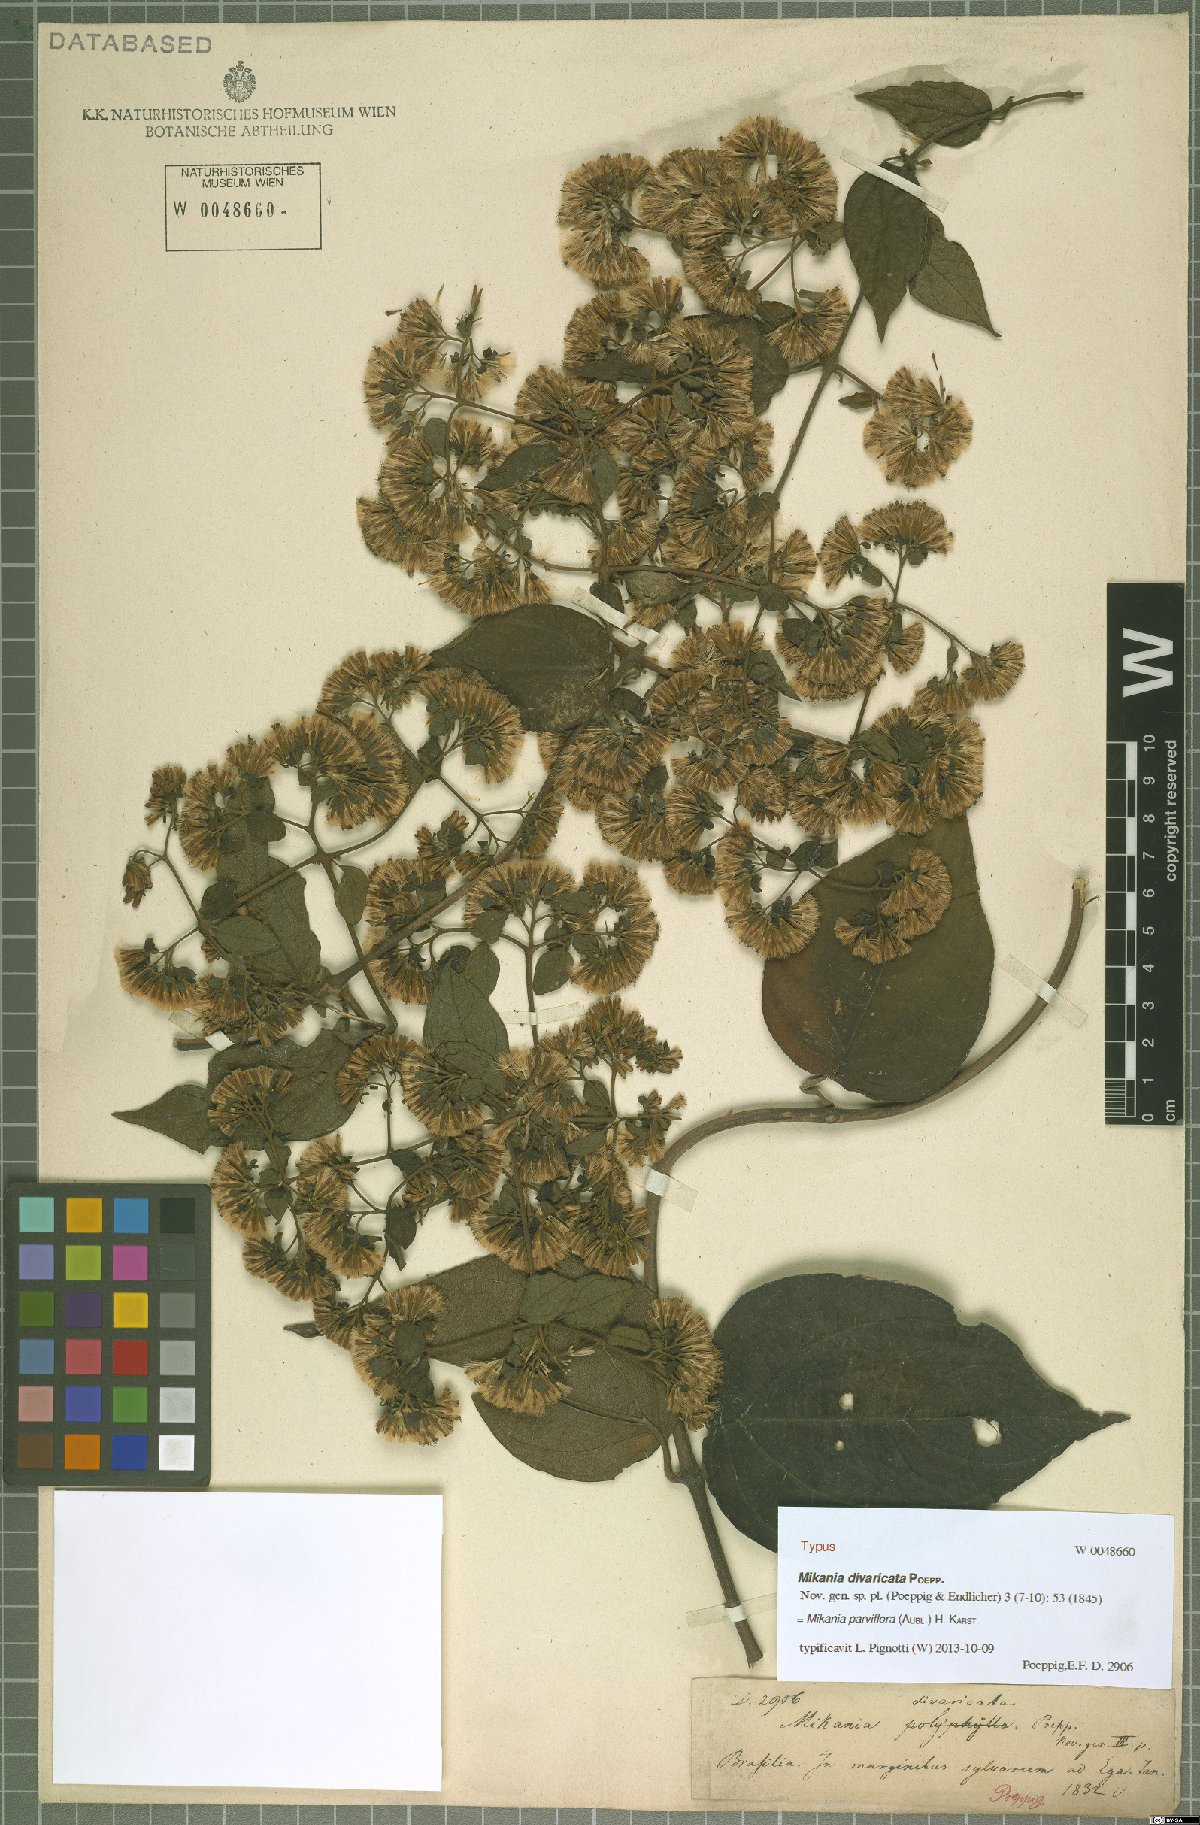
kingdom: Plantae
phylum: Tracheophyta
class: Magnoliopsida
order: Asterales
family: Asteraceae
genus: Mikania
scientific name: Mikania parviflora
